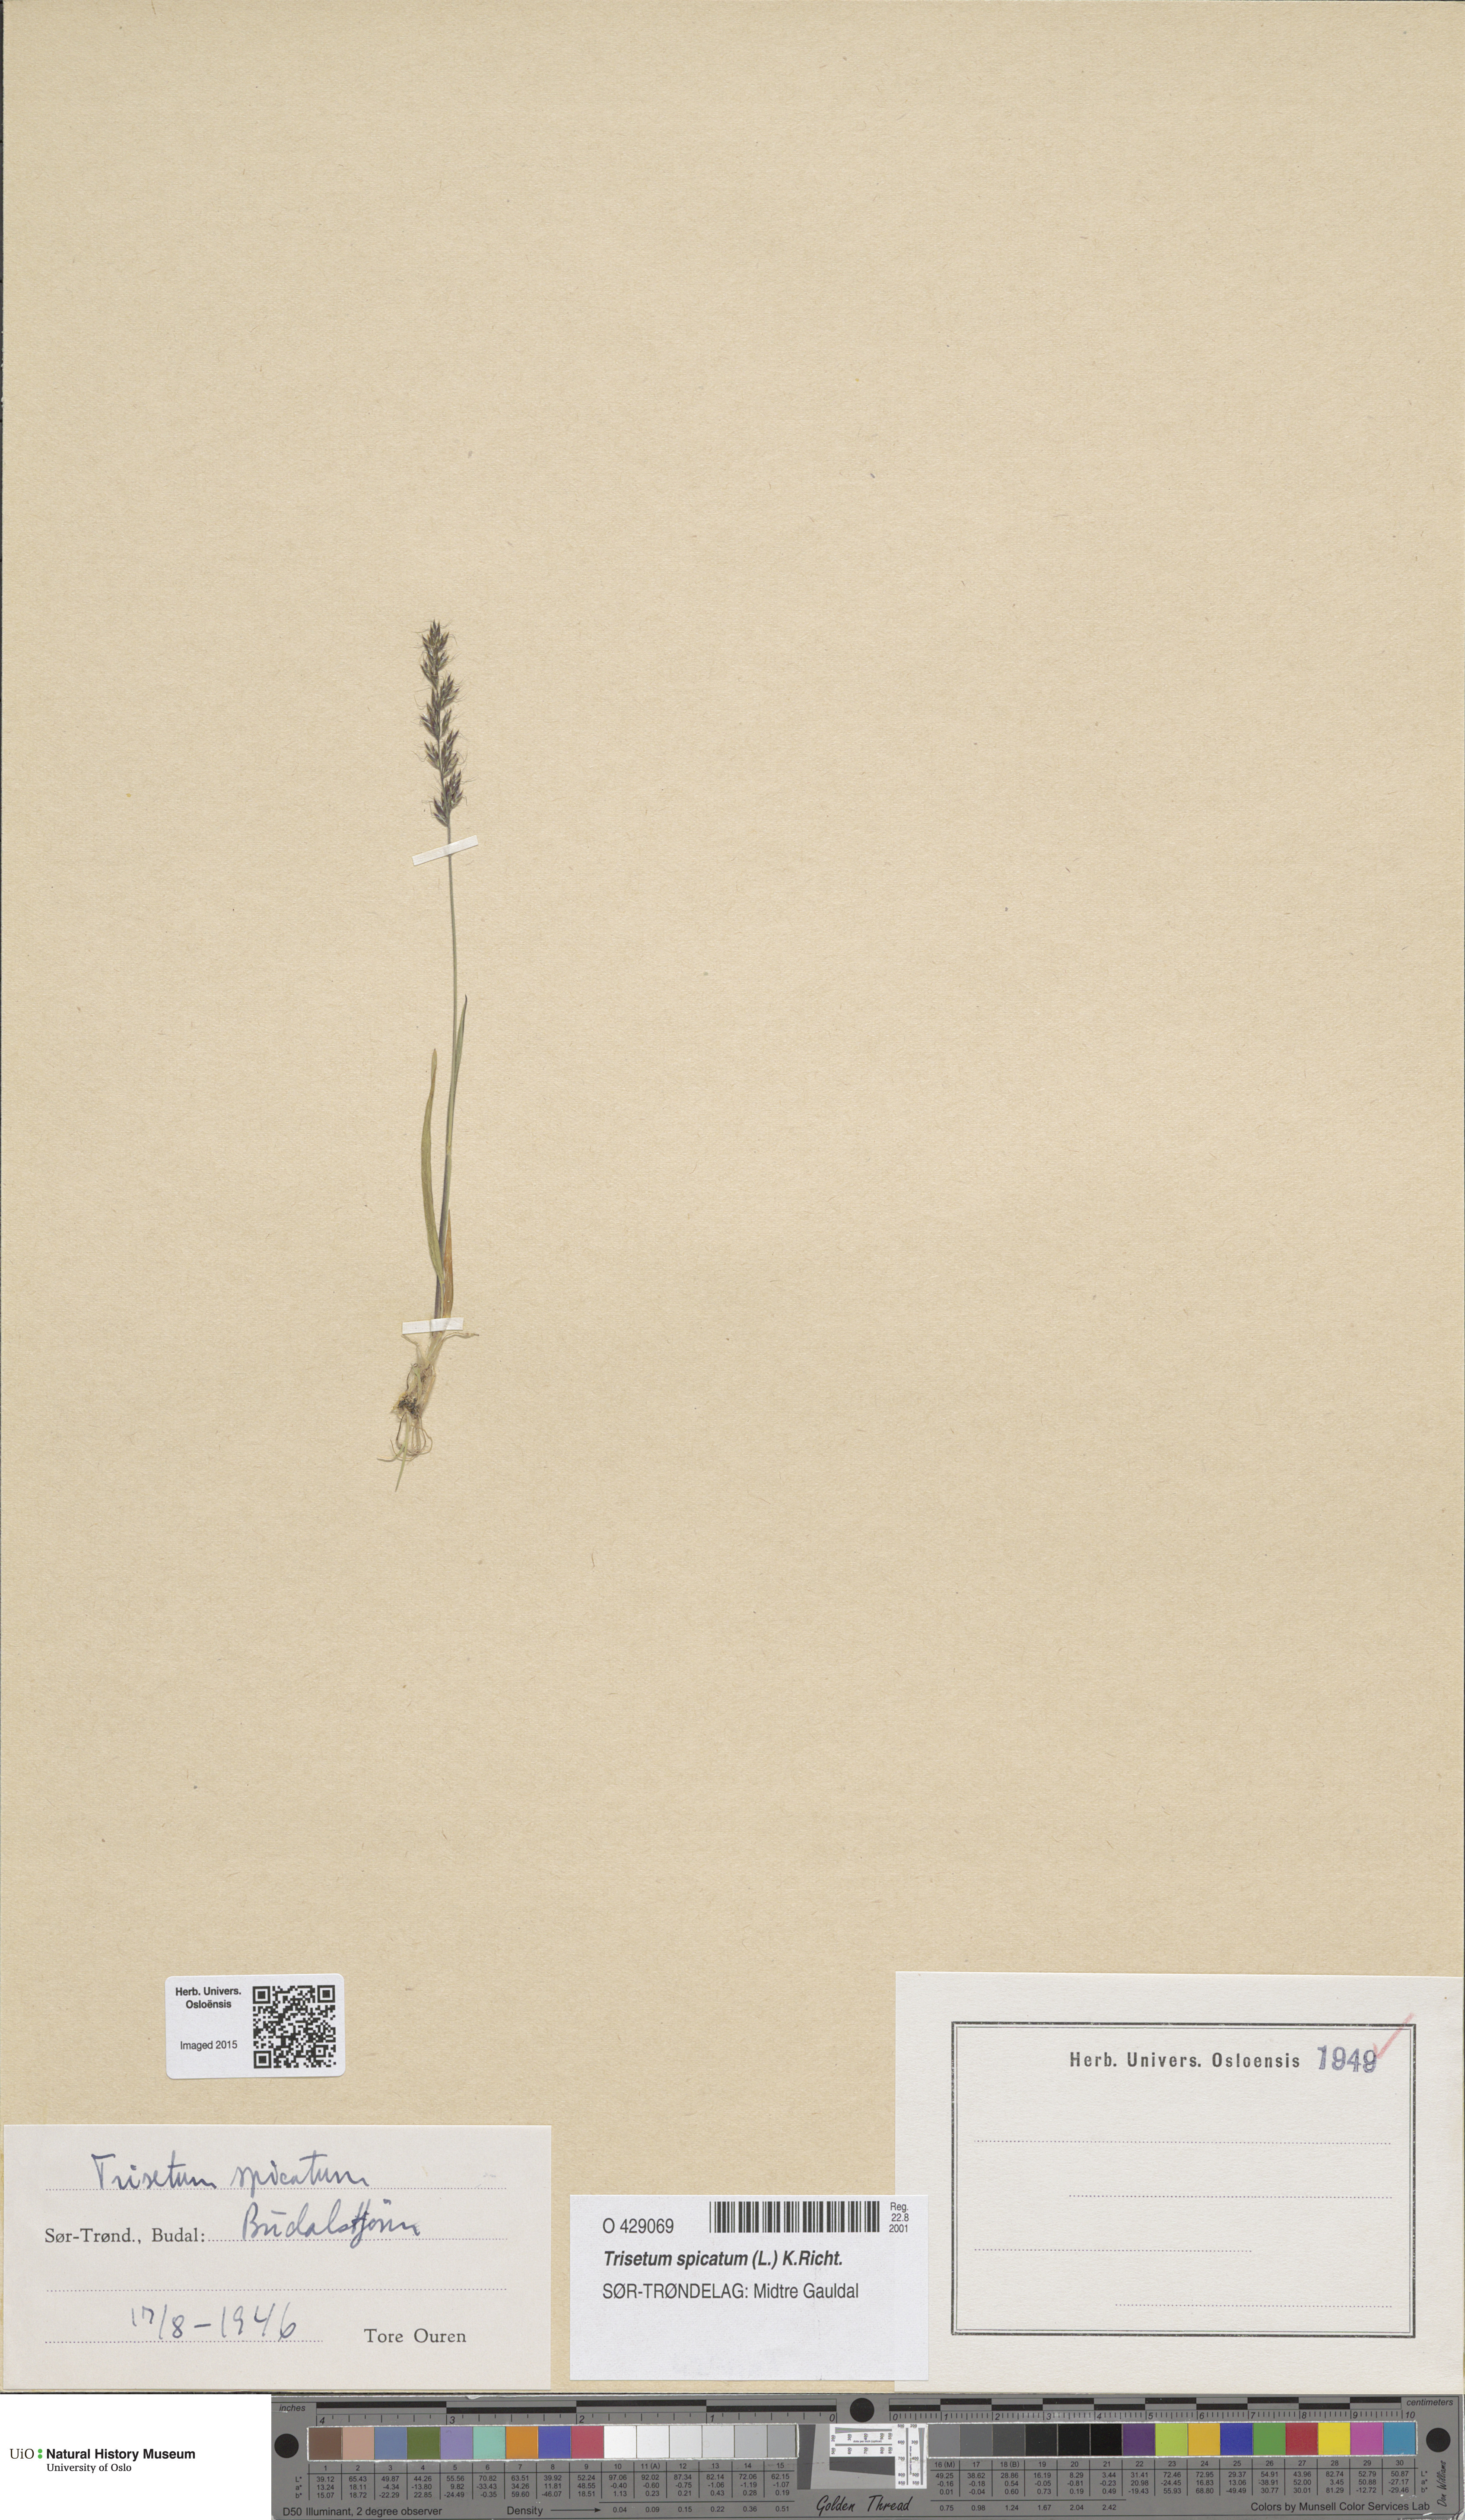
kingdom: Plantae
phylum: Tracheophyta
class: Liliopsida
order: Poales
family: Poaceae
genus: Koeleria
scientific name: Koeleria spicata
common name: Mountain trisetum
